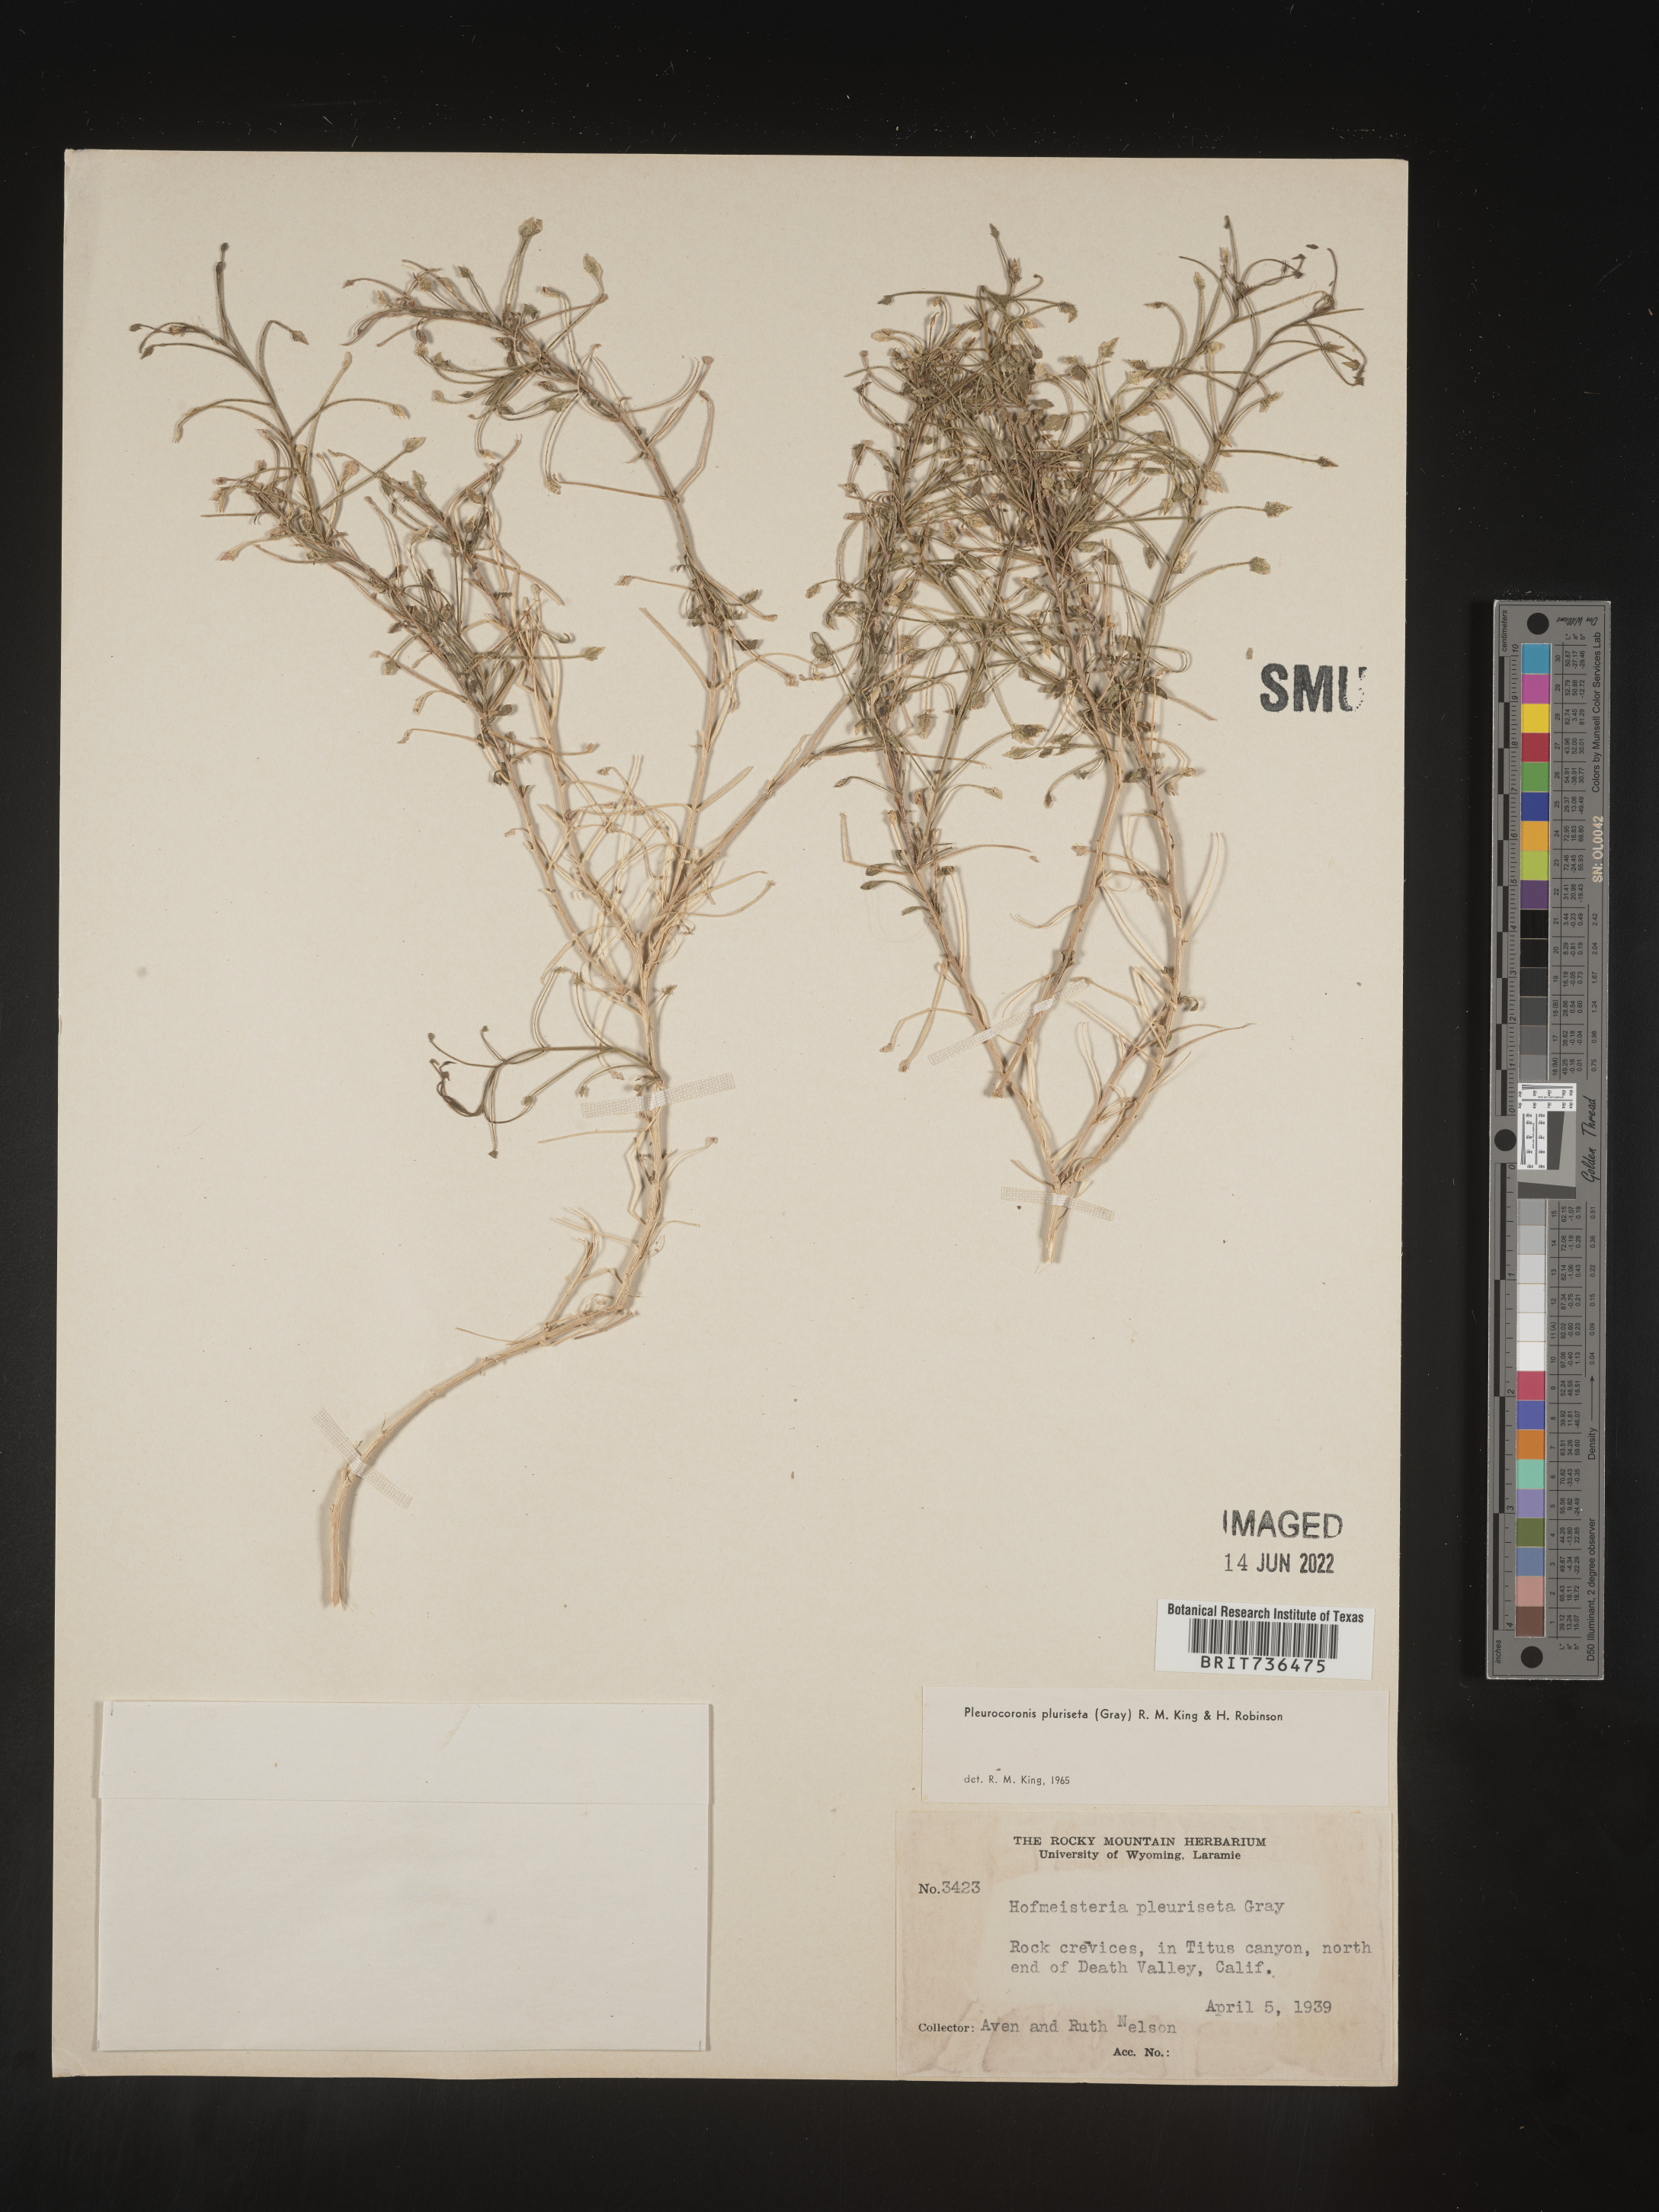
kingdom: Plantae
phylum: Tracheophyta
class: Magnoliopsida
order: Asterales
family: Asteraceae
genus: Pleurocoronis
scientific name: Pleurocoronis
